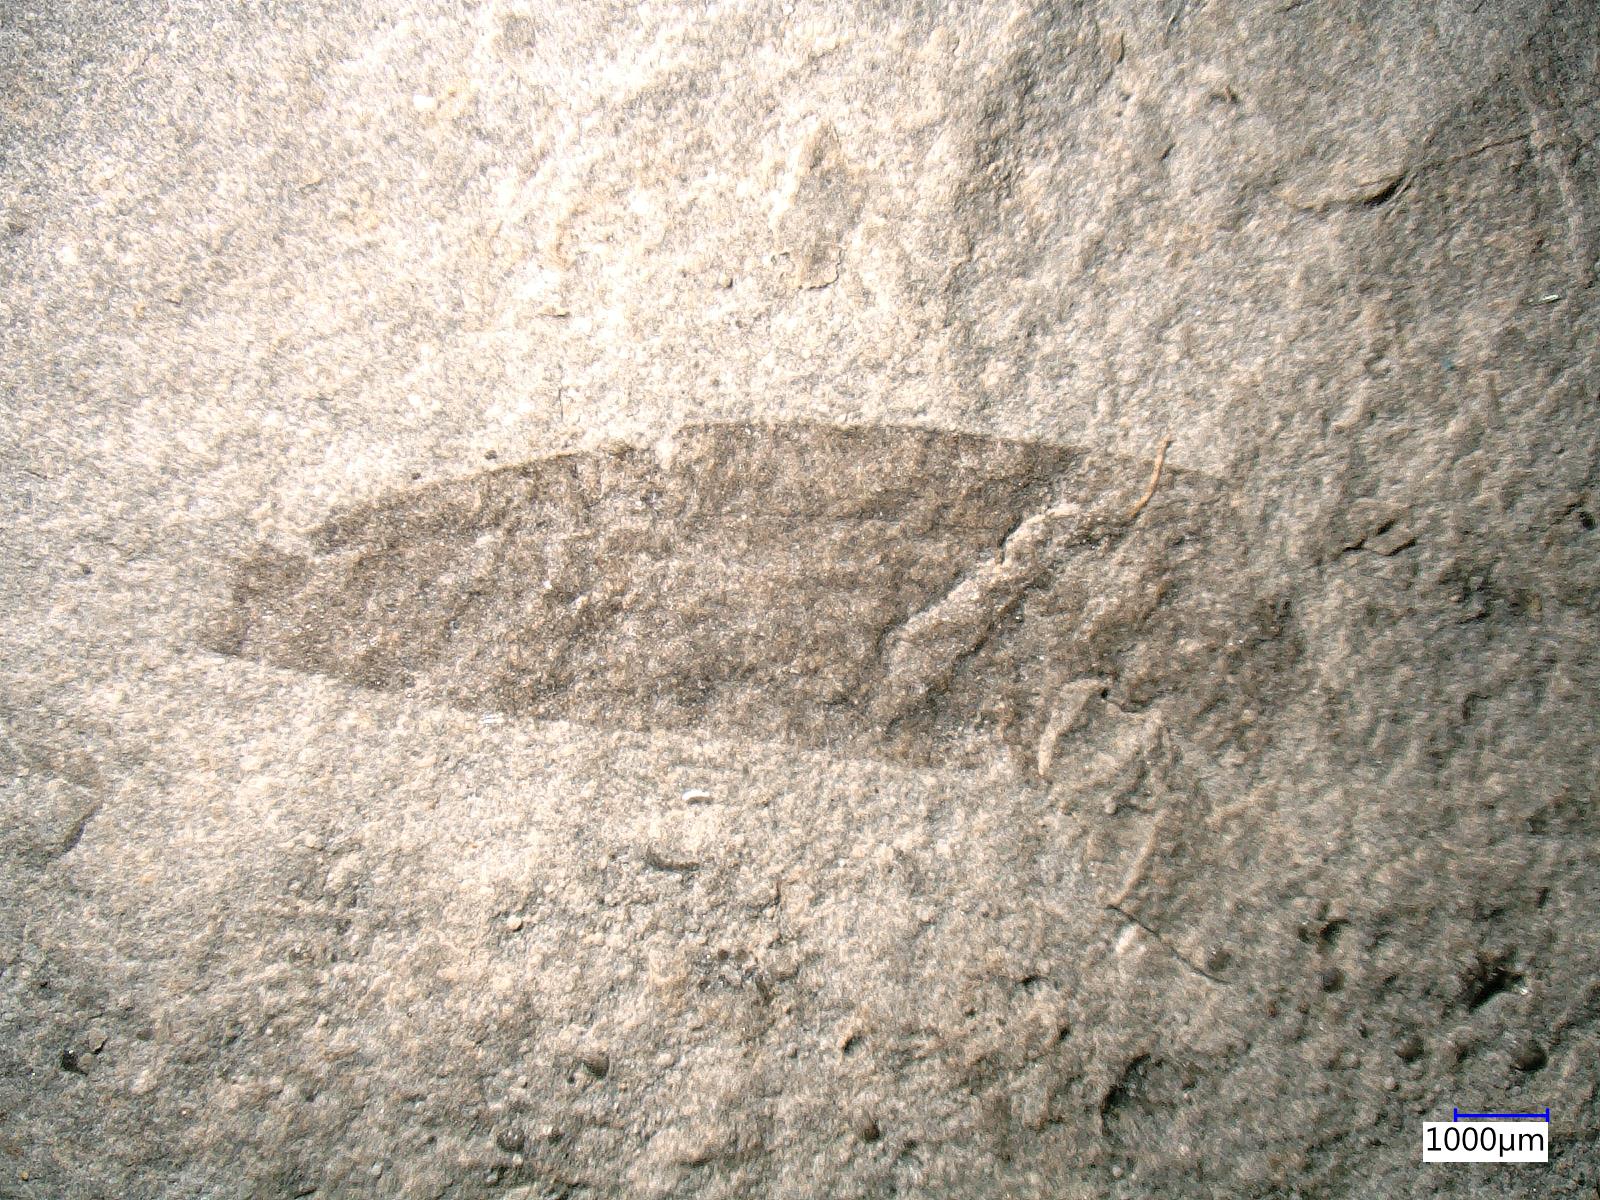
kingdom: Animalia
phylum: Arthropoda
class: Insecta
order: Odonata
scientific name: Odonata
